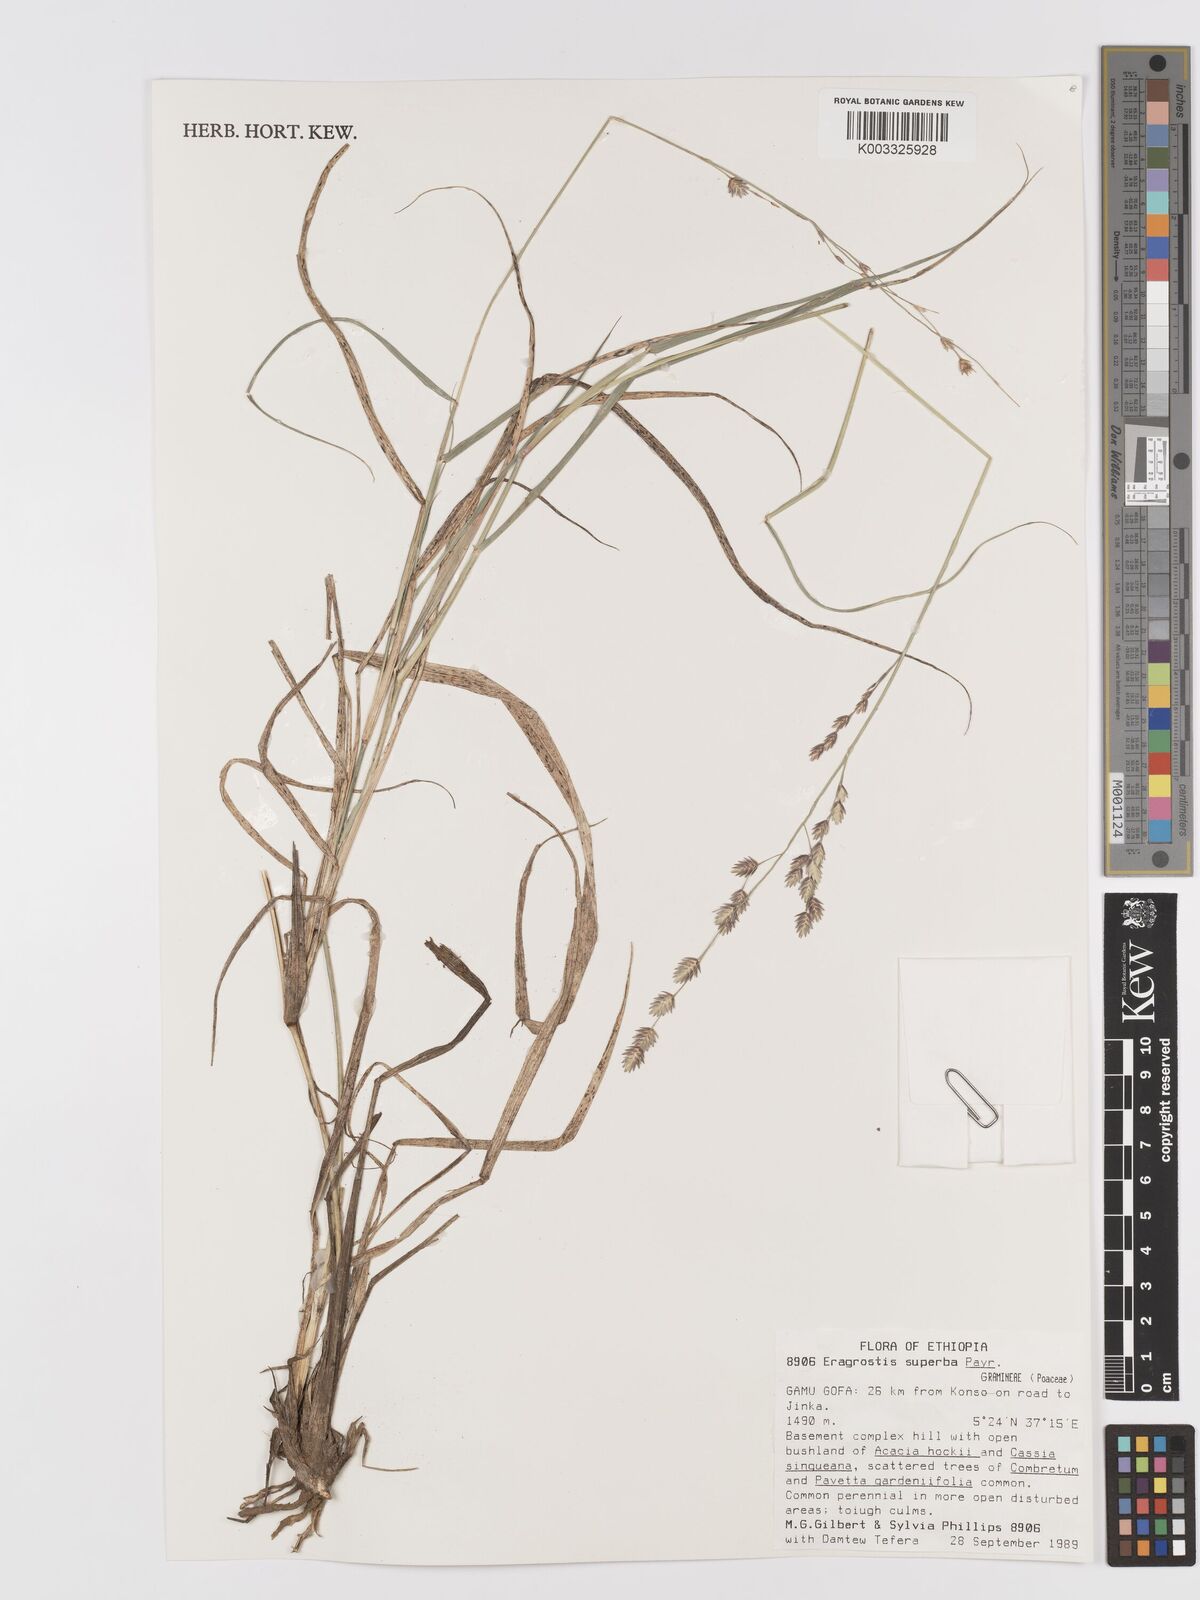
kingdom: Plantae
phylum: Tracheophyta
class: Liliopsida
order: Poales
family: Poaceae
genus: Eragrostis
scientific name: Eragrostis superba
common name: Wilman lovegrass
